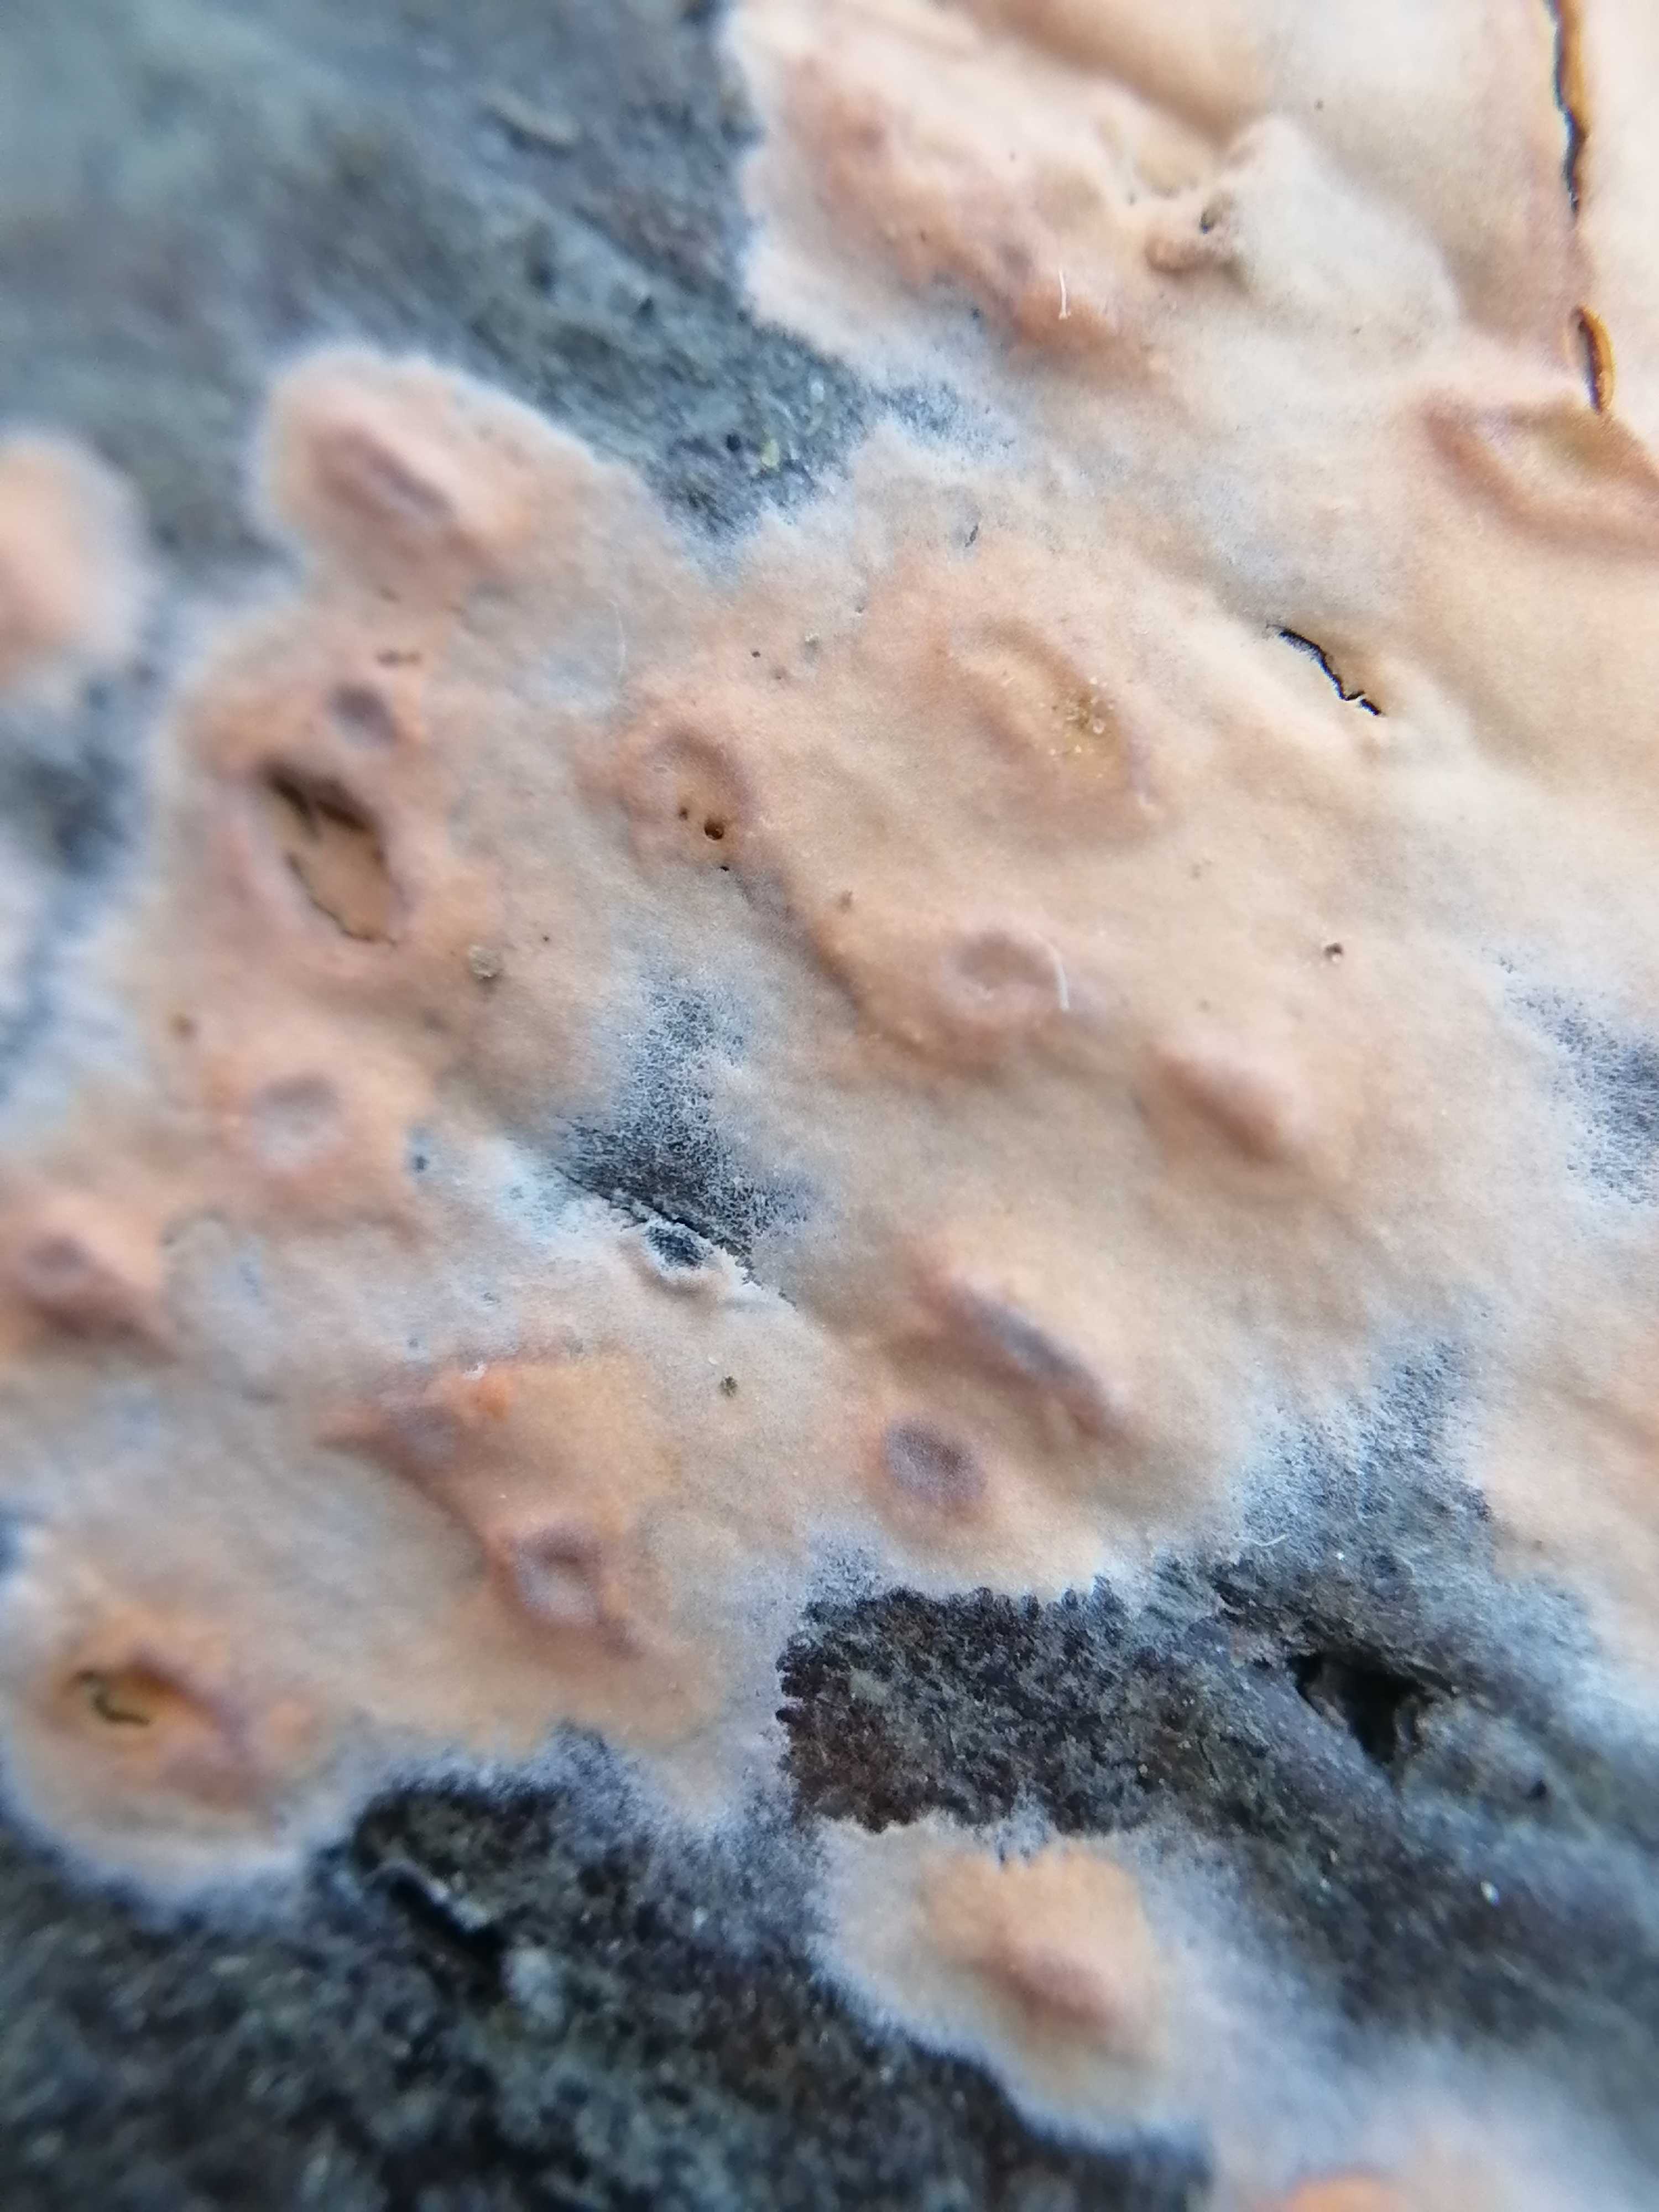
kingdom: Fungi
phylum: Basidiomycota
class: Agaricomycetes
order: Russulales
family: Peniophoraceae
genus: Peniophora
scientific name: Peniophora incarnata
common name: laksefarvet voksskind
